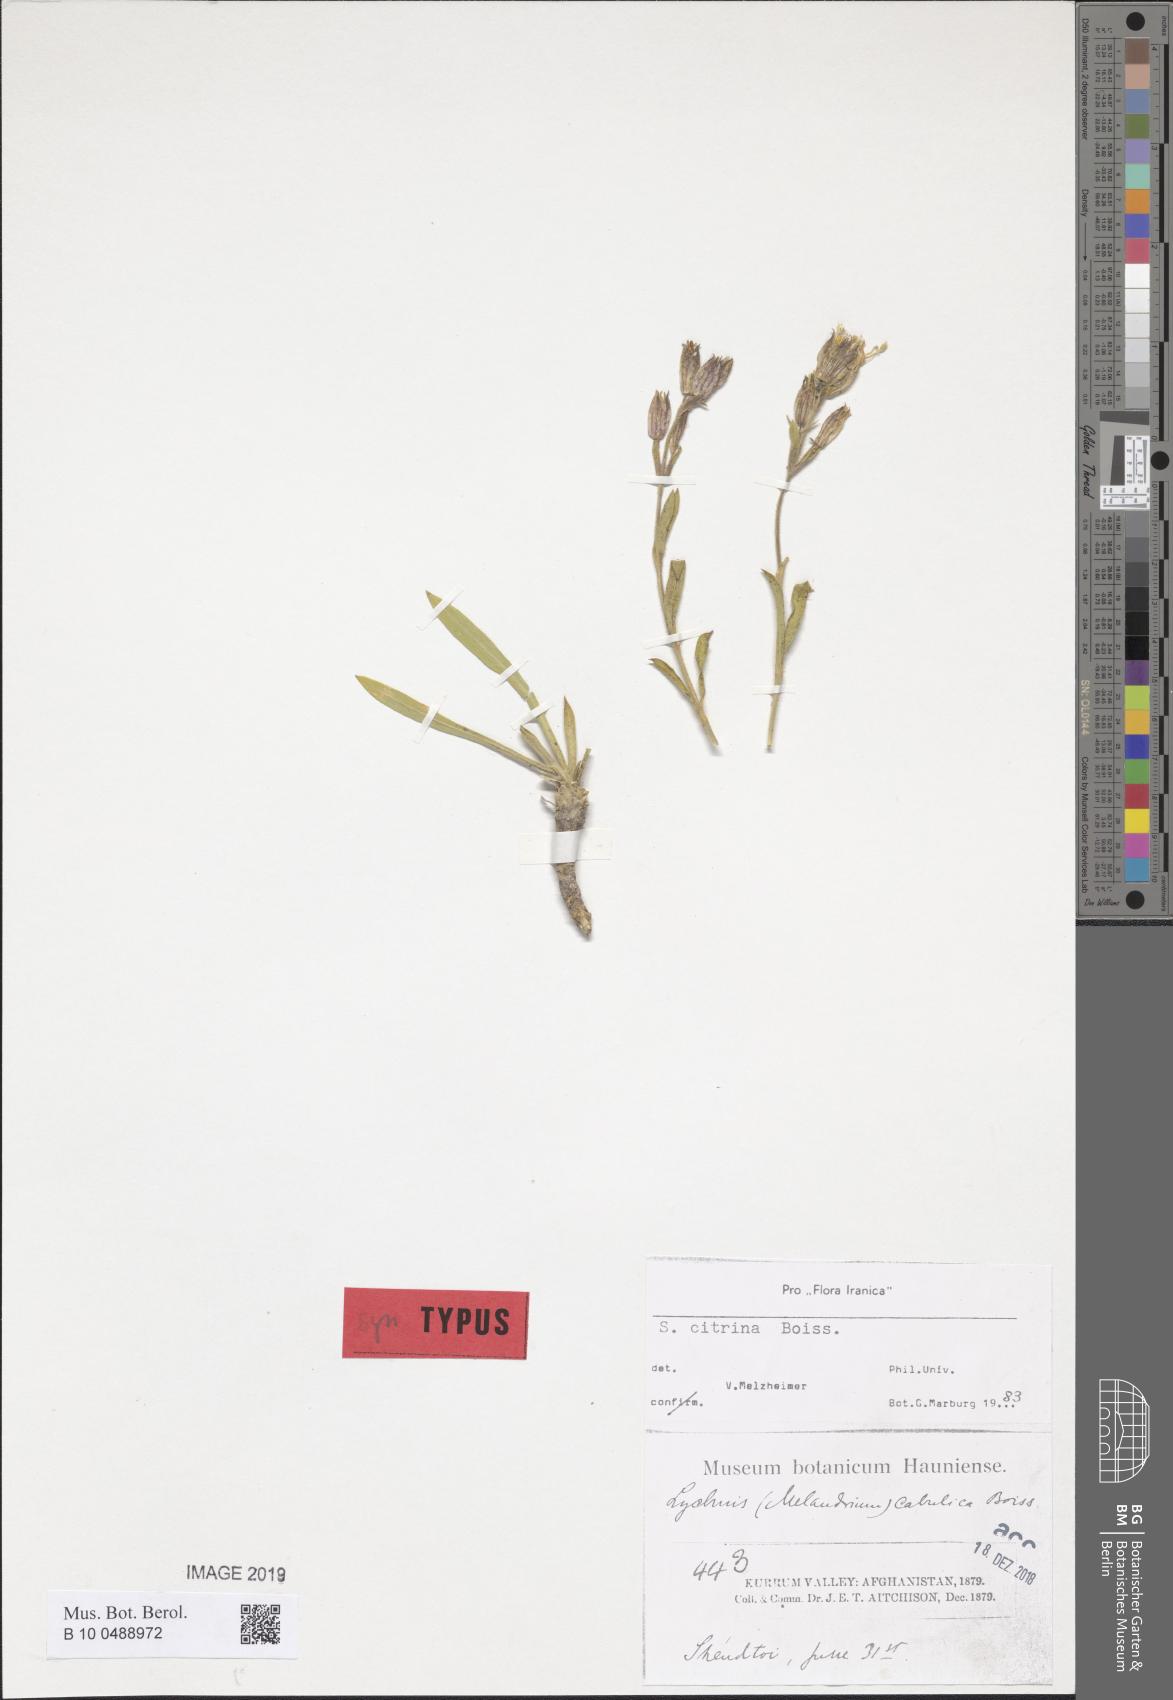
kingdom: Plantae
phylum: Tracheophyta
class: Magnoliopsida
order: Caryophyllales
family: Caryophyllaceae
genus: Silene
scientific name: Silene citrina
